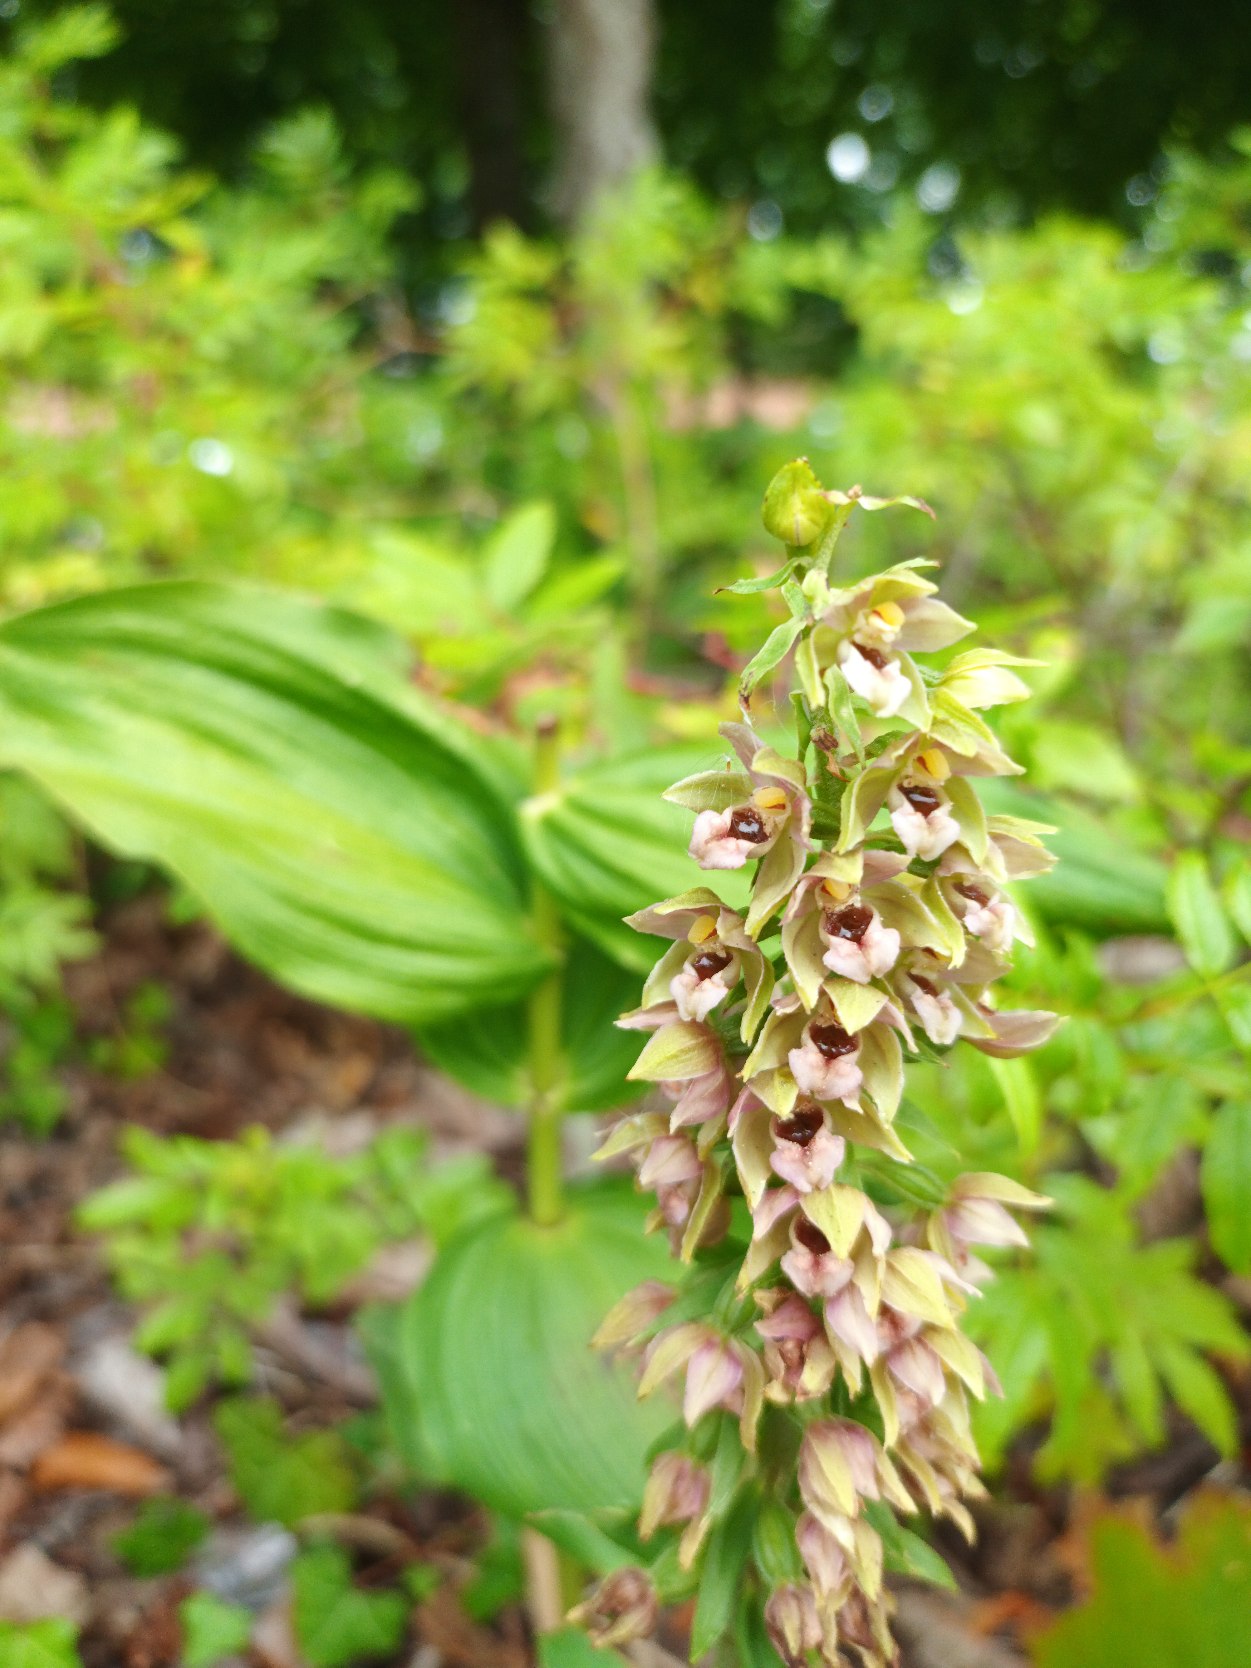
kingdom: Plantae
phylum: Tracheophyta
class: Liliopsida
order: Asparagales
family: Orchidaceae
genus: Epipactis
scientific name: Epipactis helleborine
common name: Skov-hullæbe
